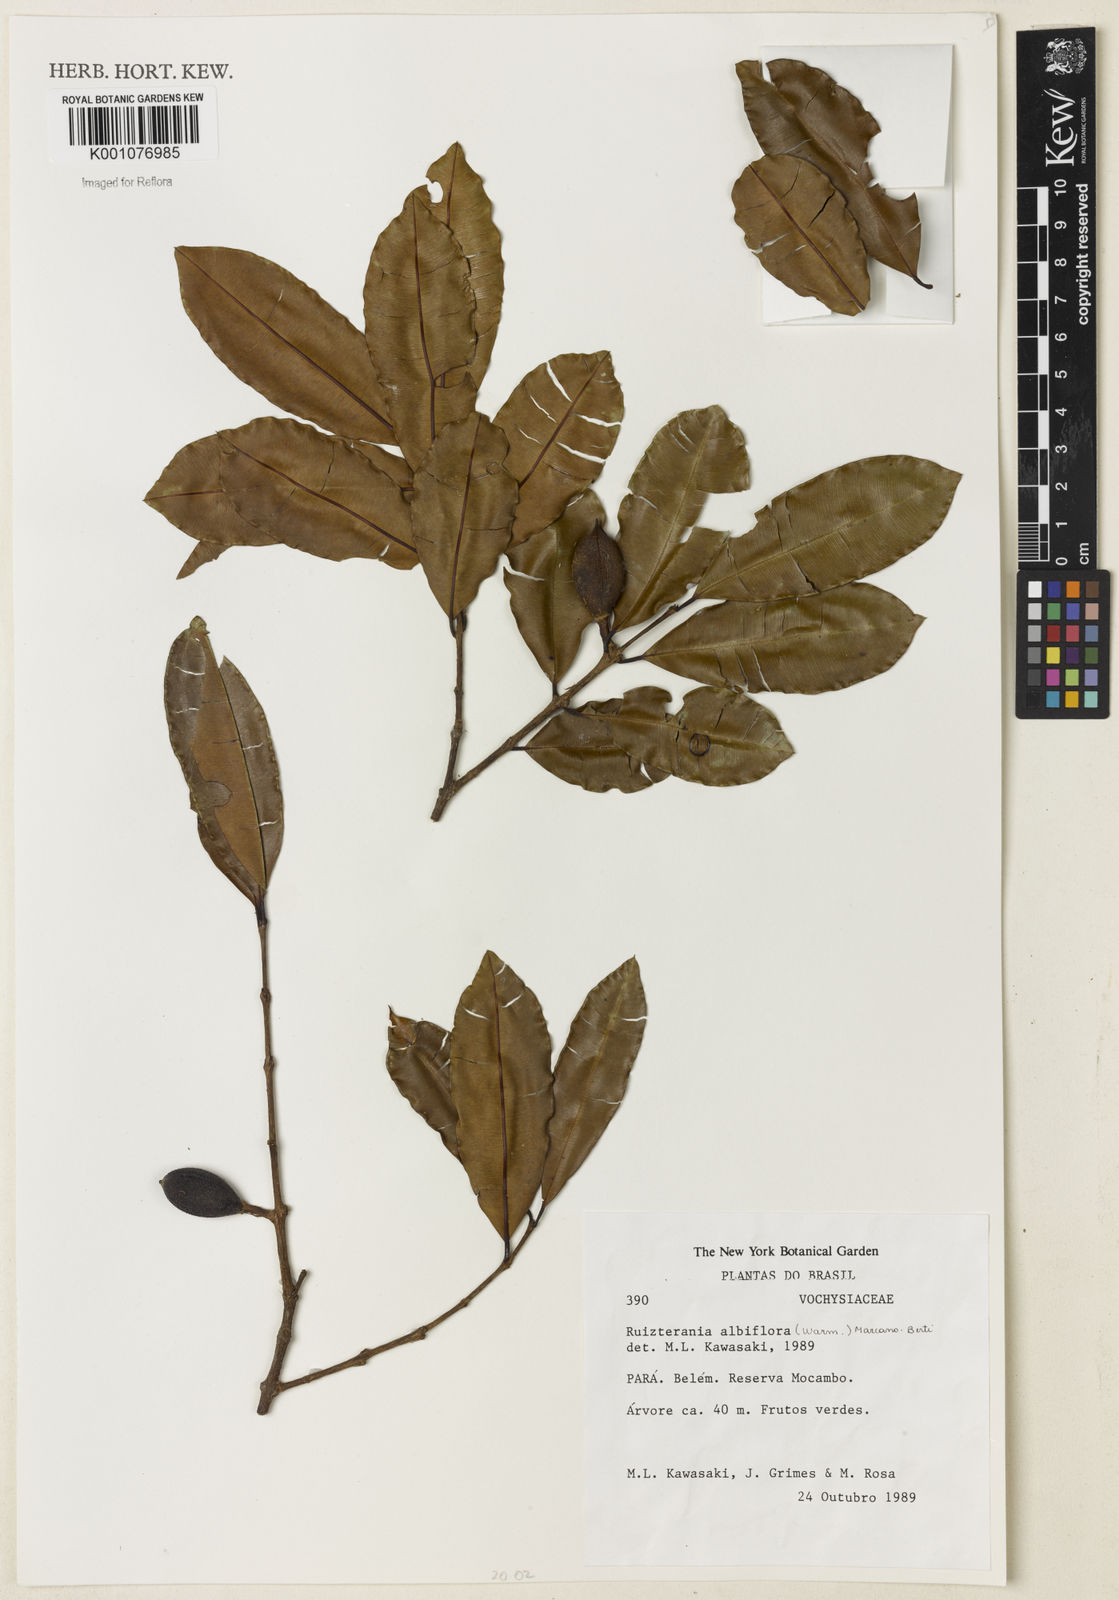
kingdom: Plantae
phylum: Tracheophyta
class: Magnoliopsida
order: Myrtales
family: Vochysiaceae
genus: Ruizterania
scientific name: Ruizterania albiflora
